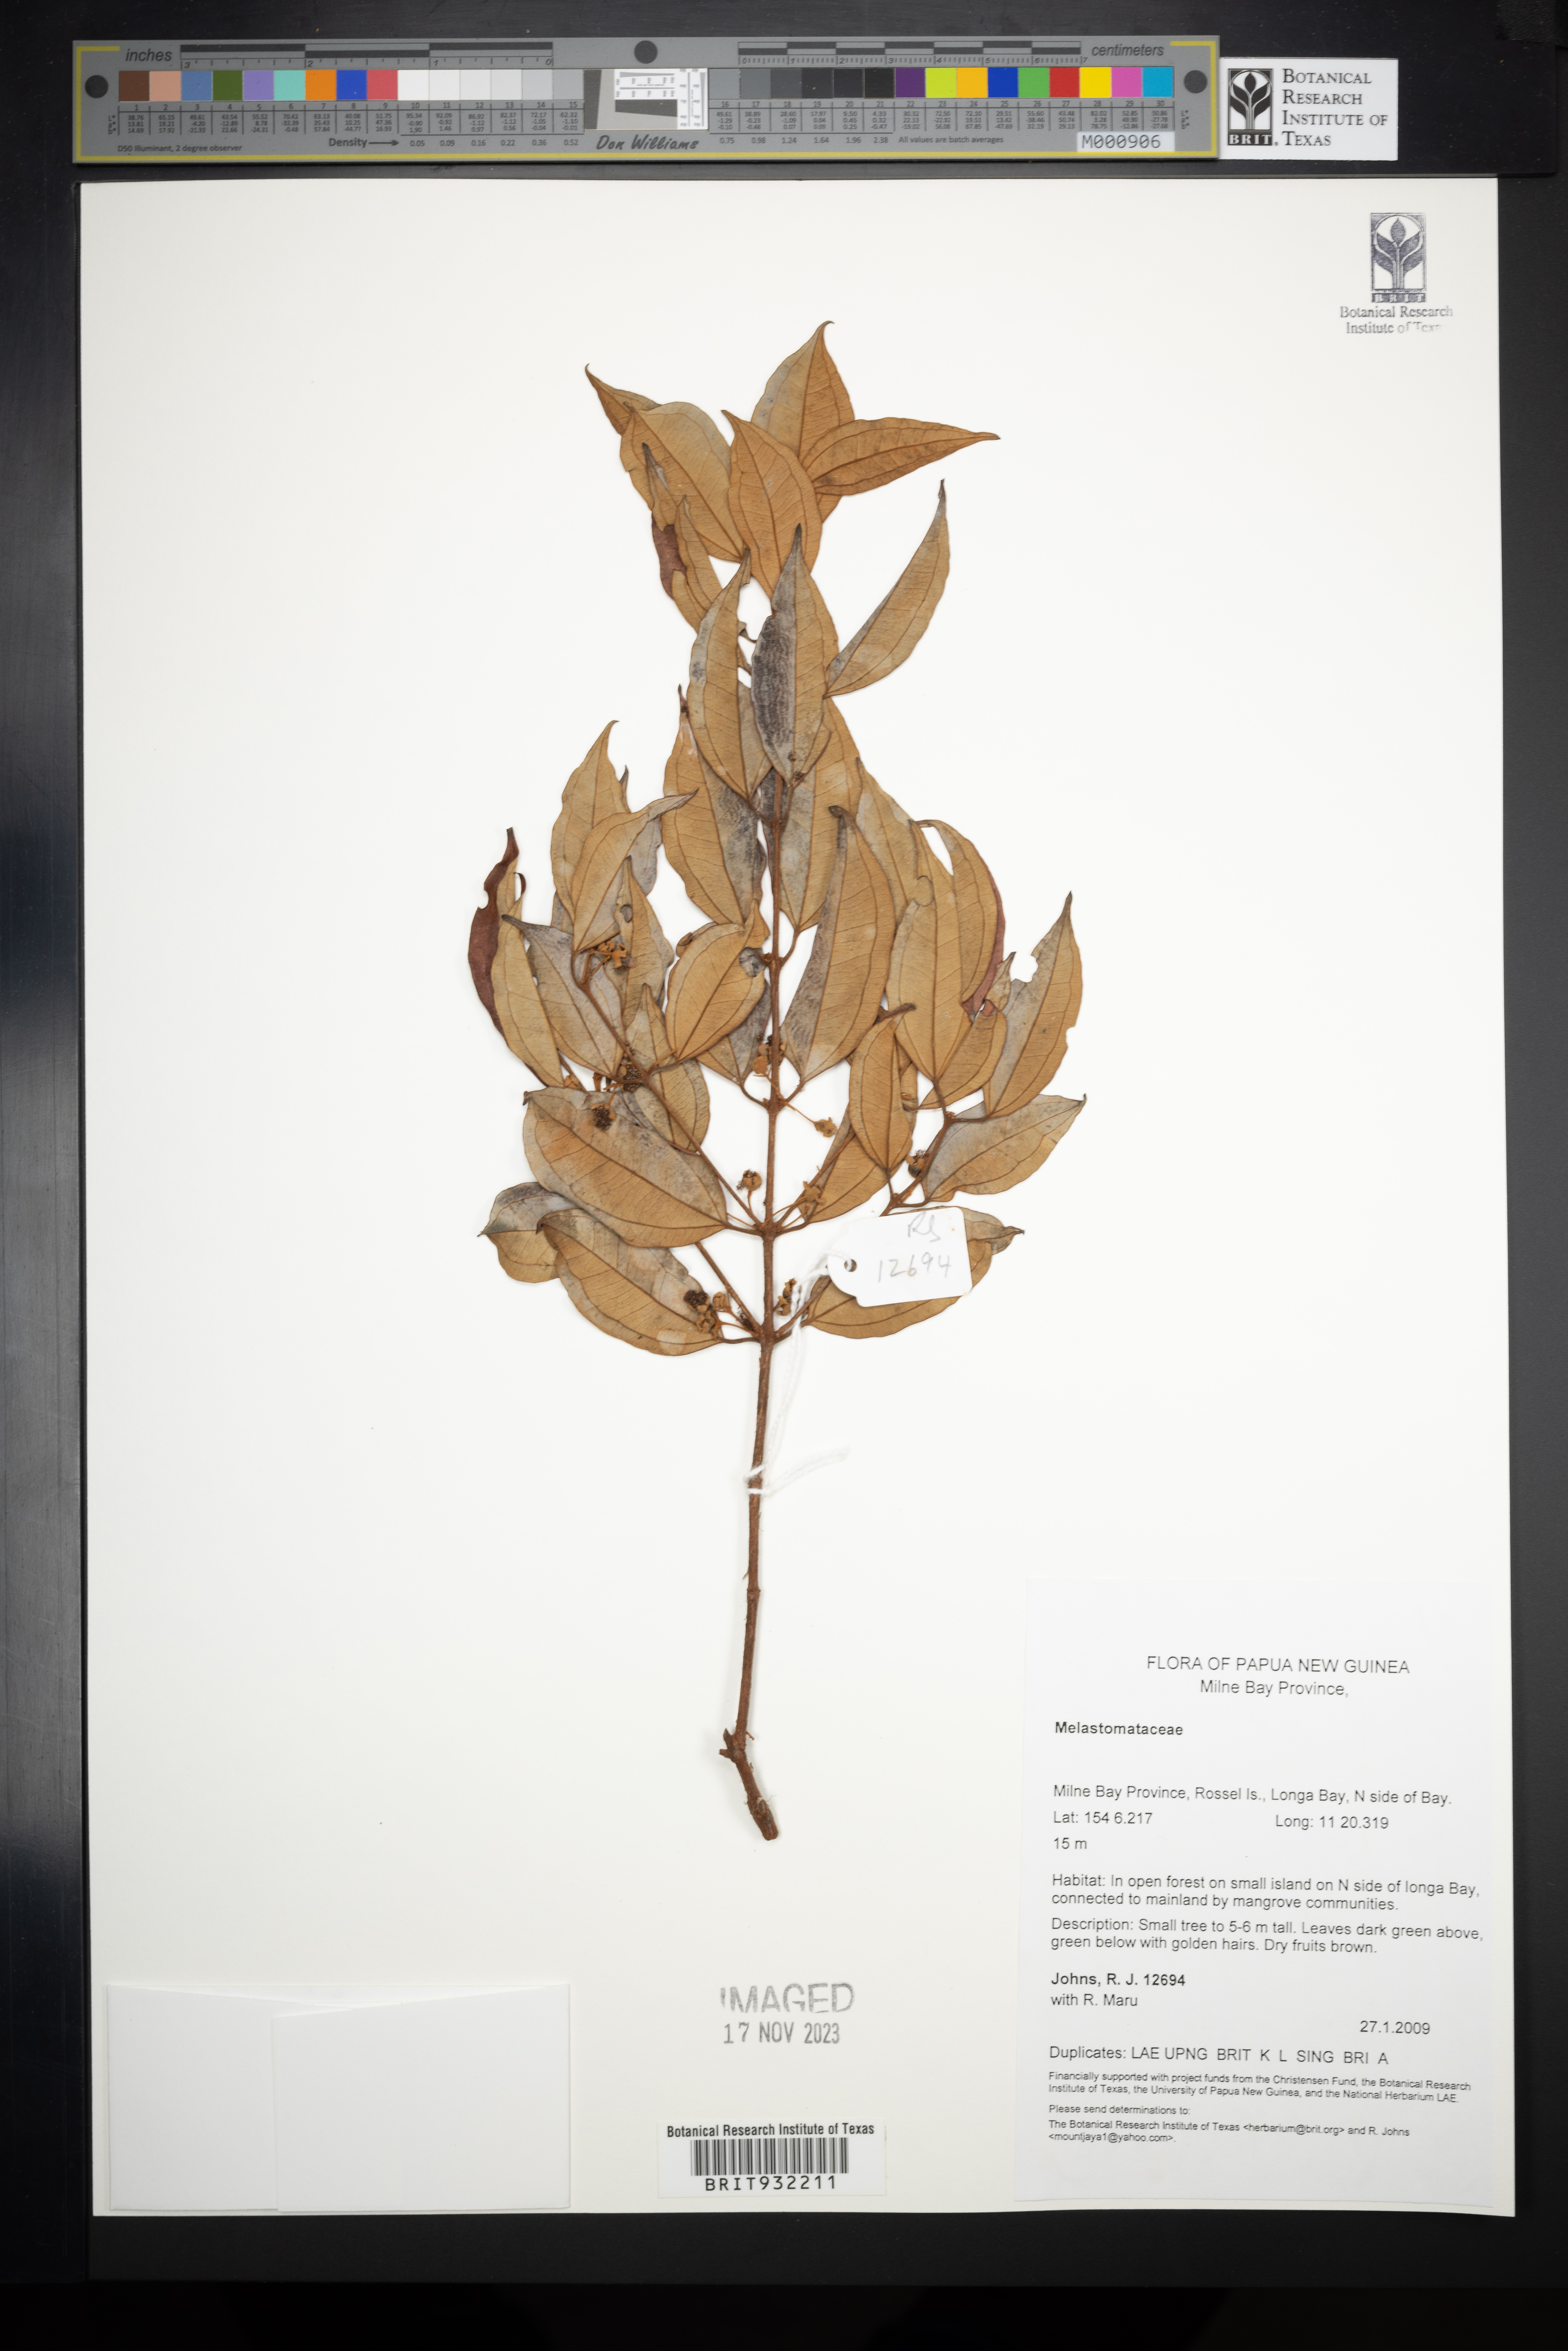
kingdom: Plantae
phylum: Tracheophyta
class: Magnoliopsida
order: Myrtales
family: Melastomataceae
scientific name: Melastomataceae
